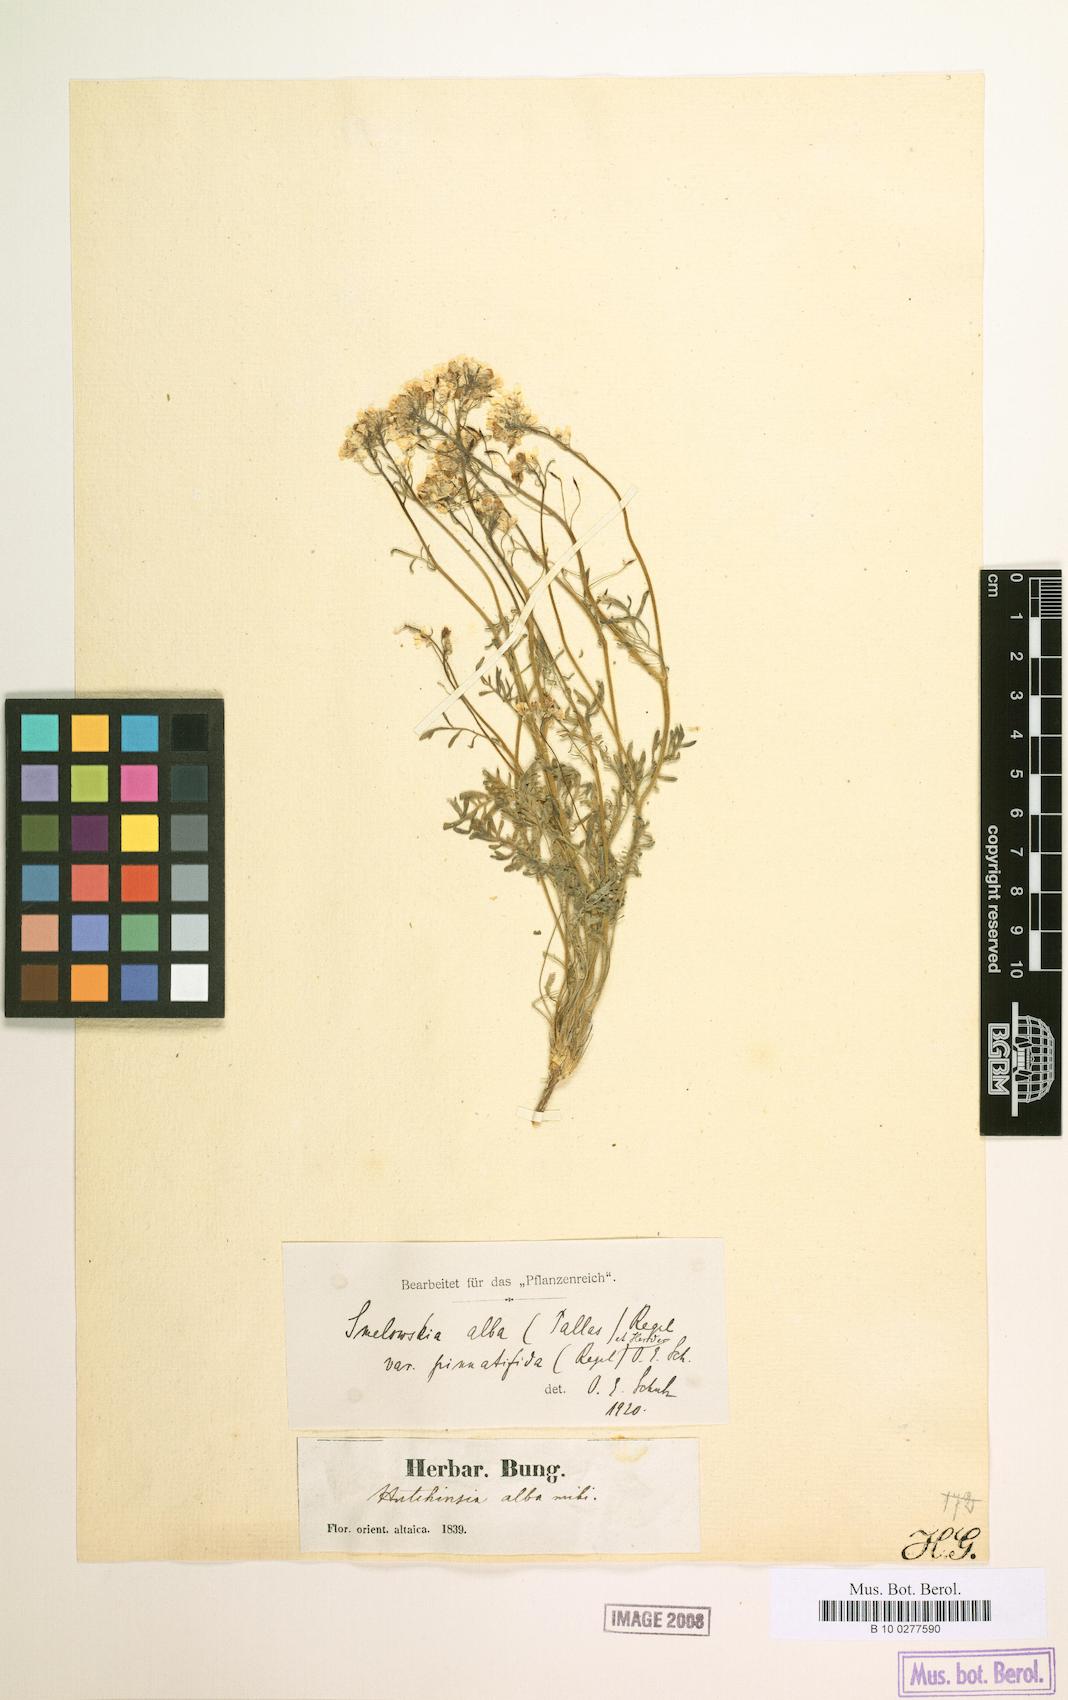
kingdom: Plantae
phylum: Tracheophyta
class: Magnoliopsida
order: Brassicales
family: Brassicaceae
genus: Smelowskia
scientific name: Smelowskia alba
